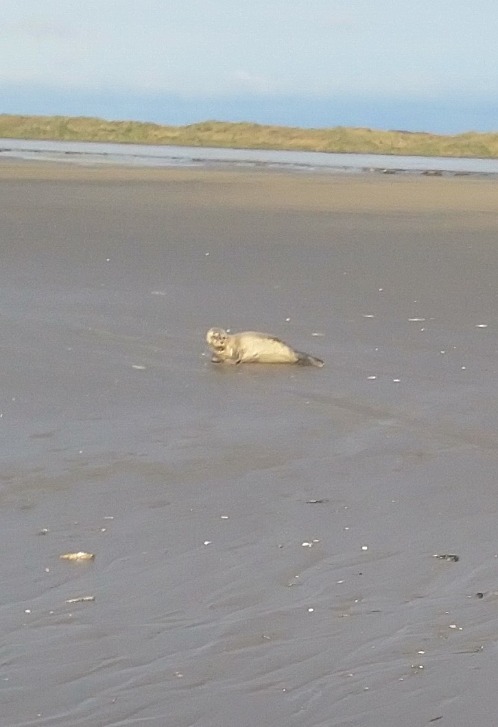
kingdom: Animalia
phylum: Chordata
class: Mammalia
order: Carnivora
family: Phocidae
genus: Phoca
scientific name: Phoca vitulina
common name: Spættet sæl
